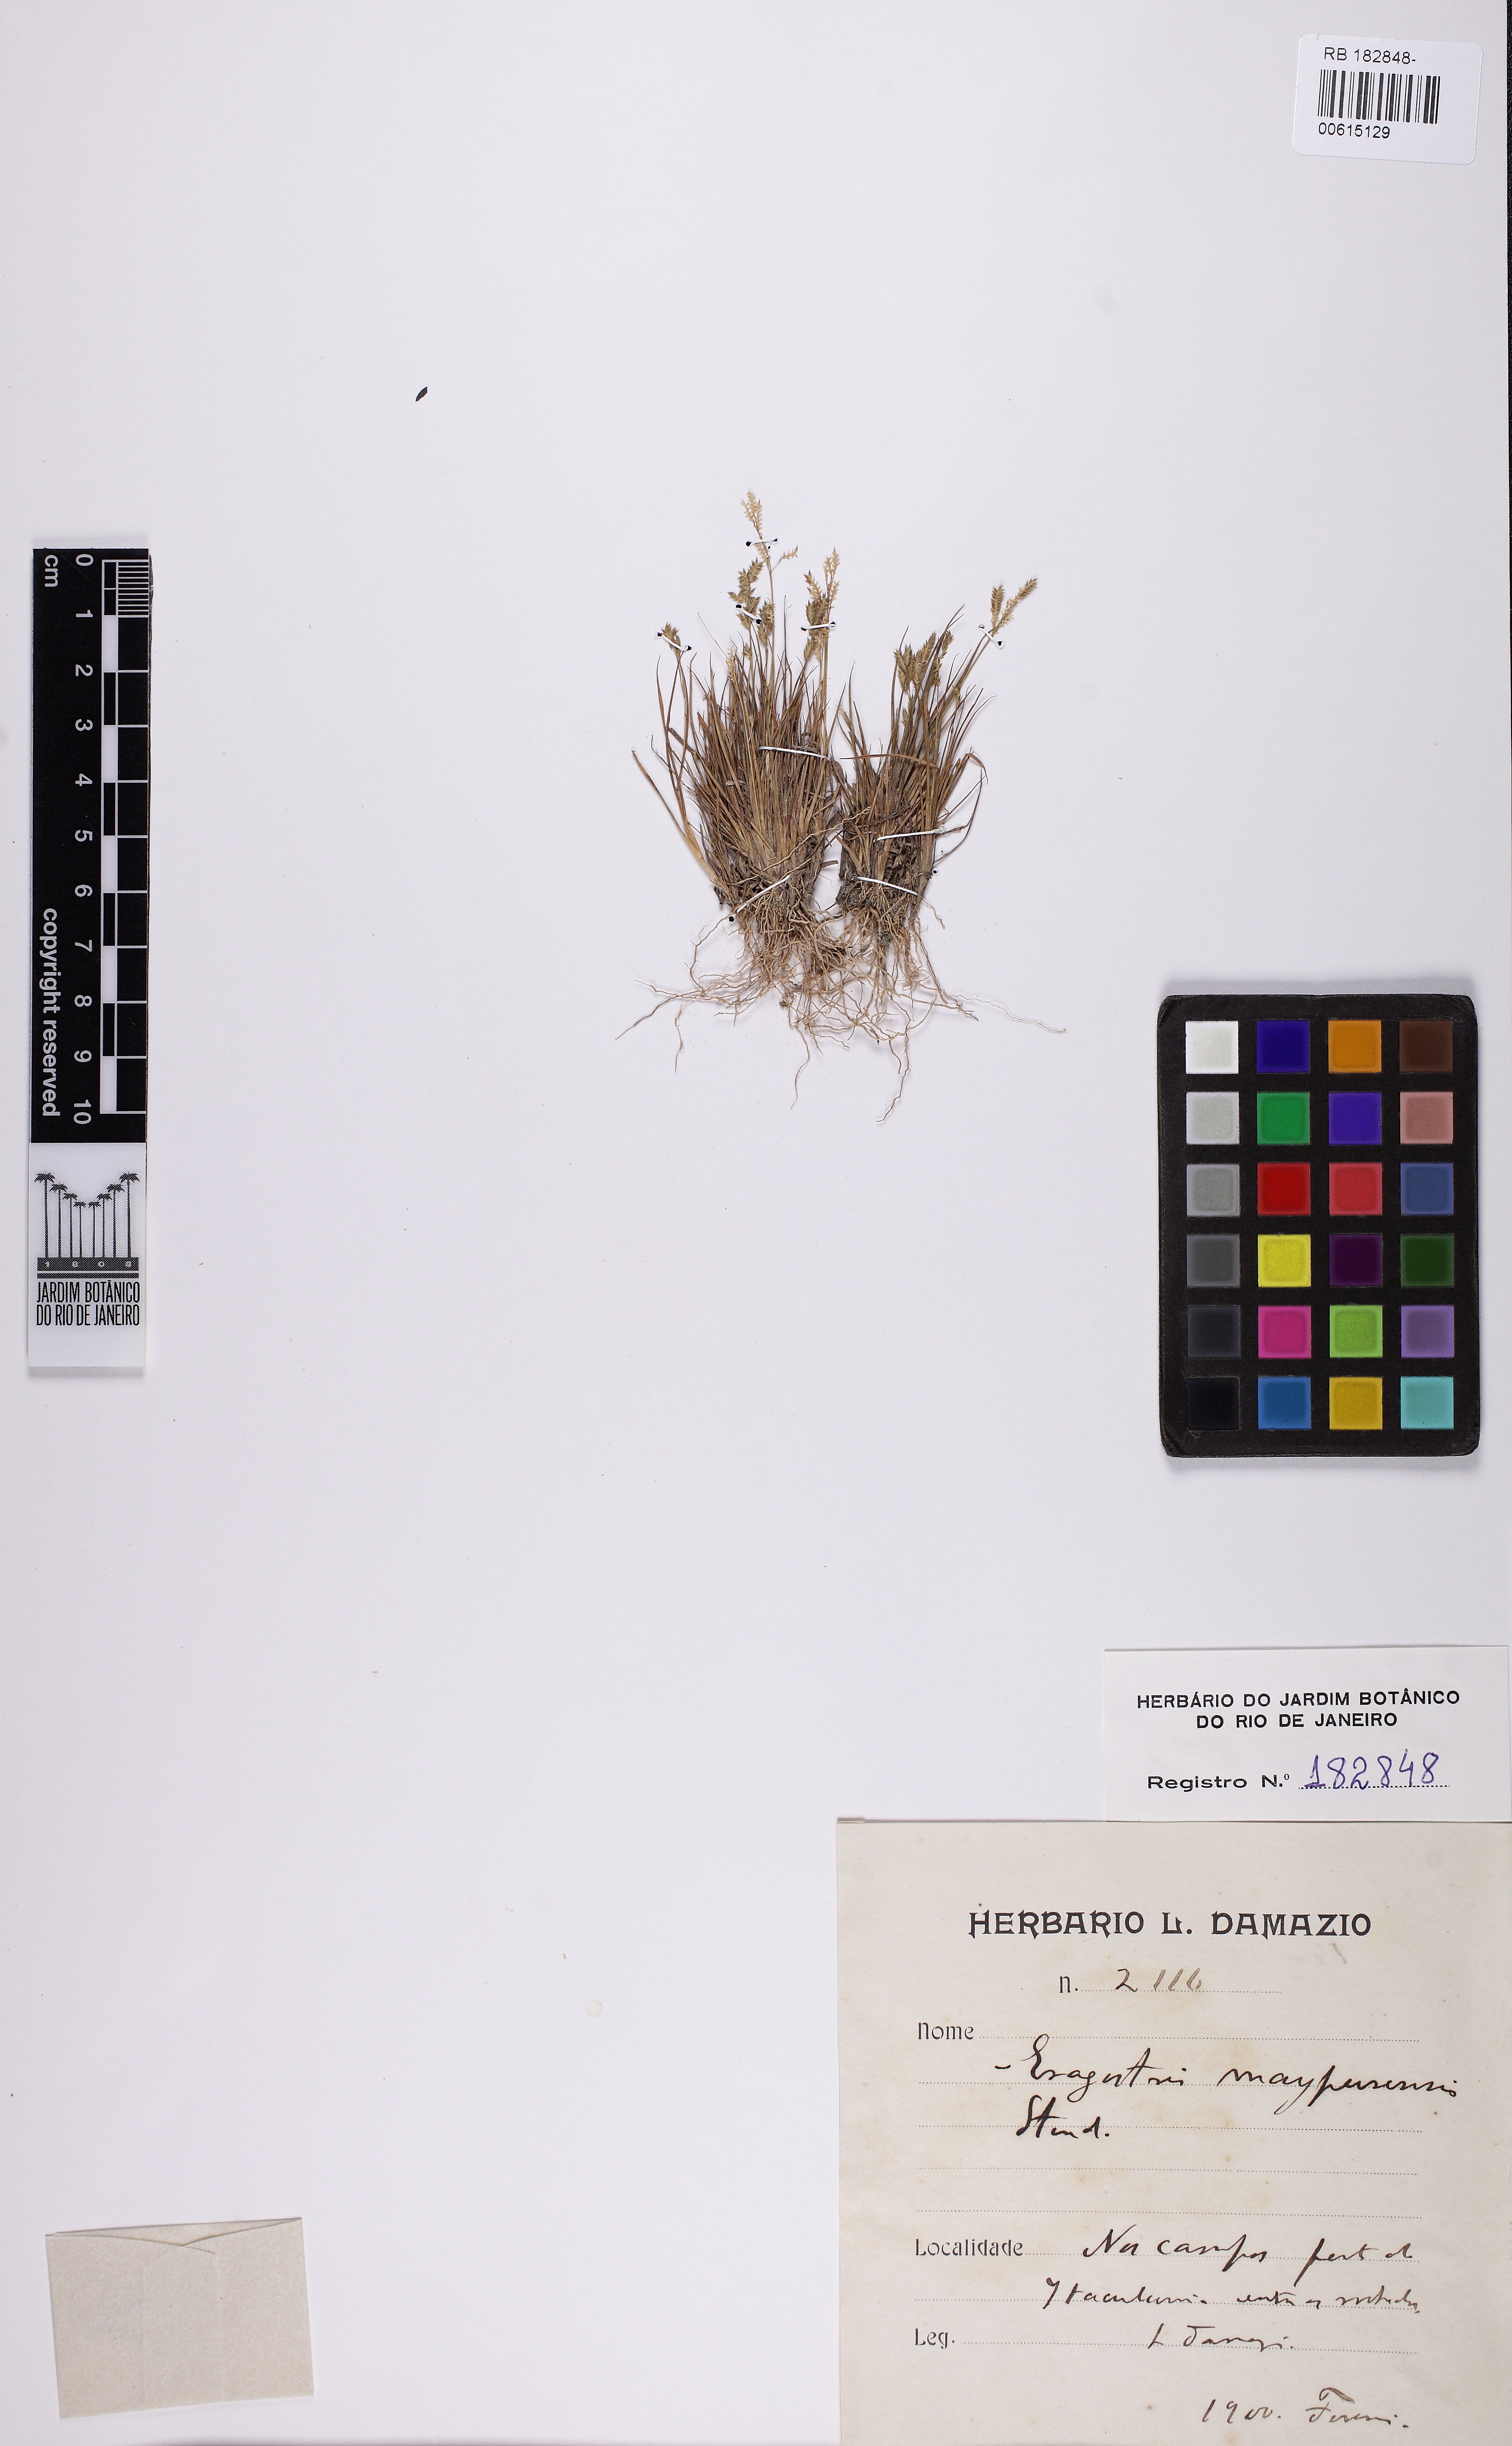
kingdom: Plantae
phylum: Tracheophyta
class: Liliopsida
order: Poales
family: Poaceae
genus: Eragrostis
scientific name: Eragrostis maypurensis
